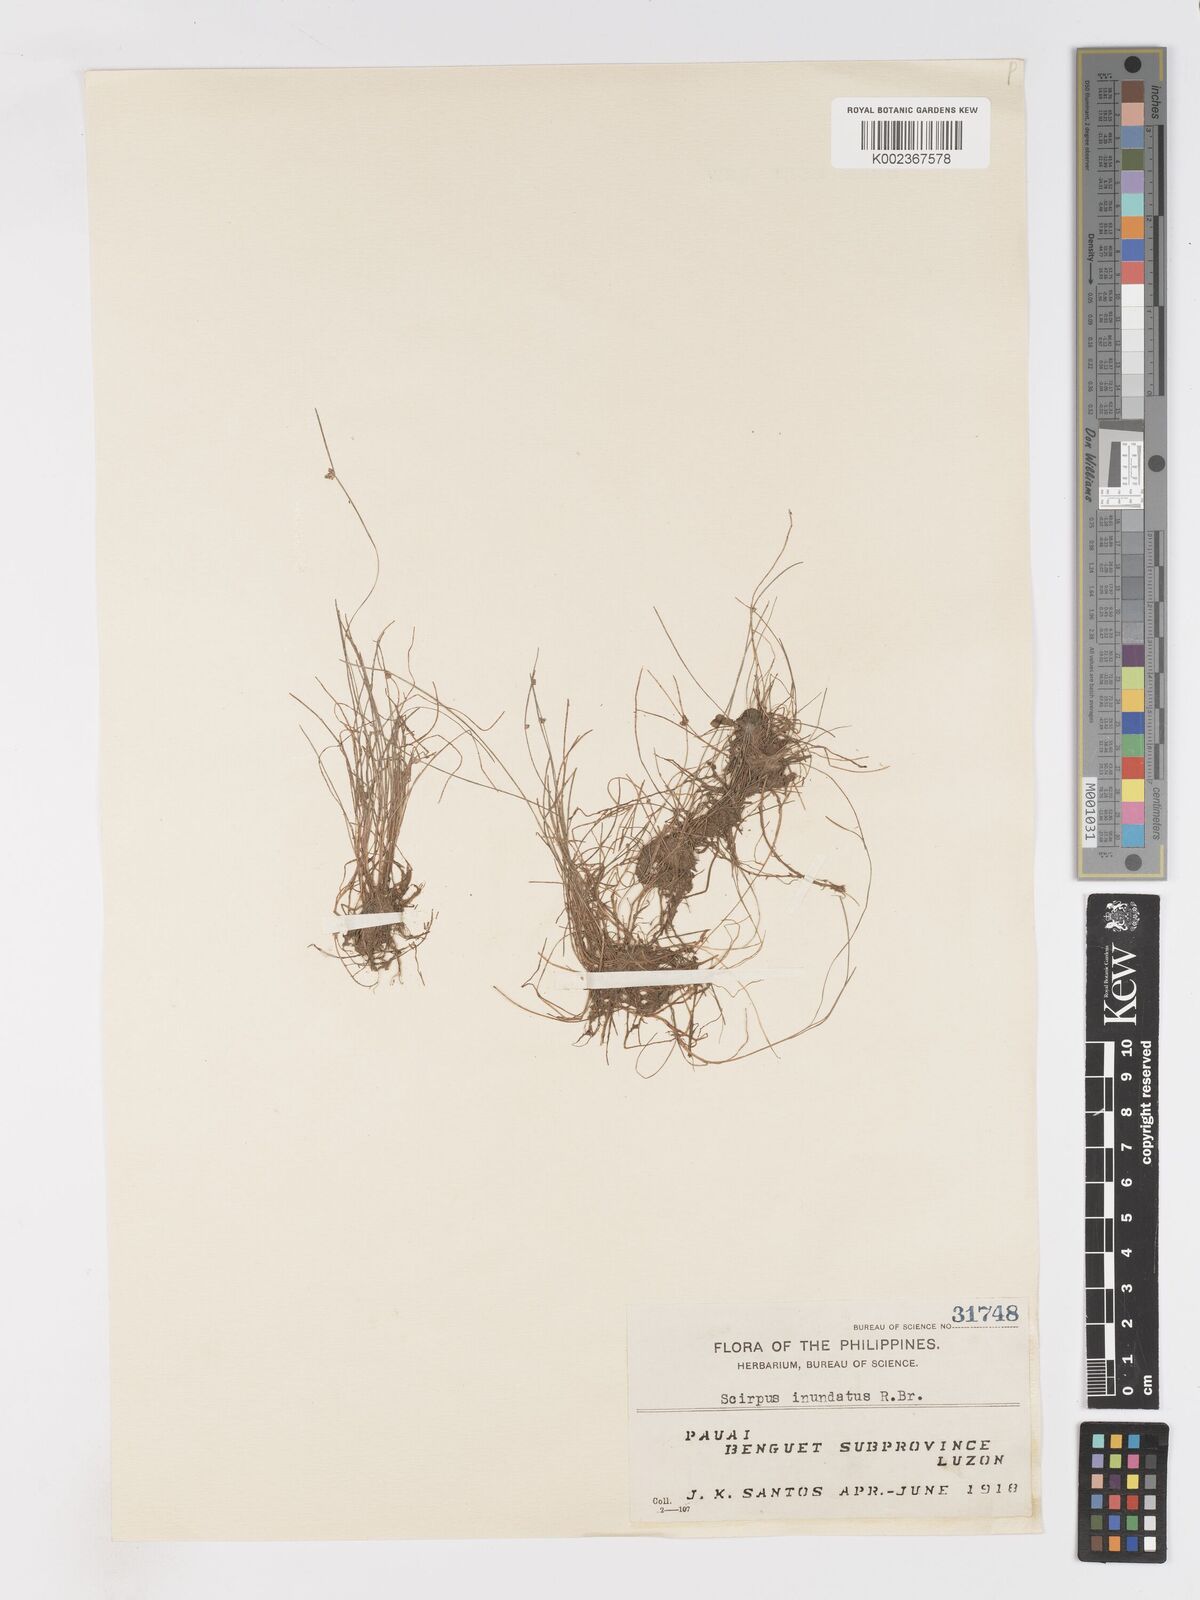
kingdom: Plantae
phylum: Tracheophyta
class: Liliopsida
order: Poales
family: Cyperaceae
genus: Isolepis
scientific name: Isolepis subtilissima
